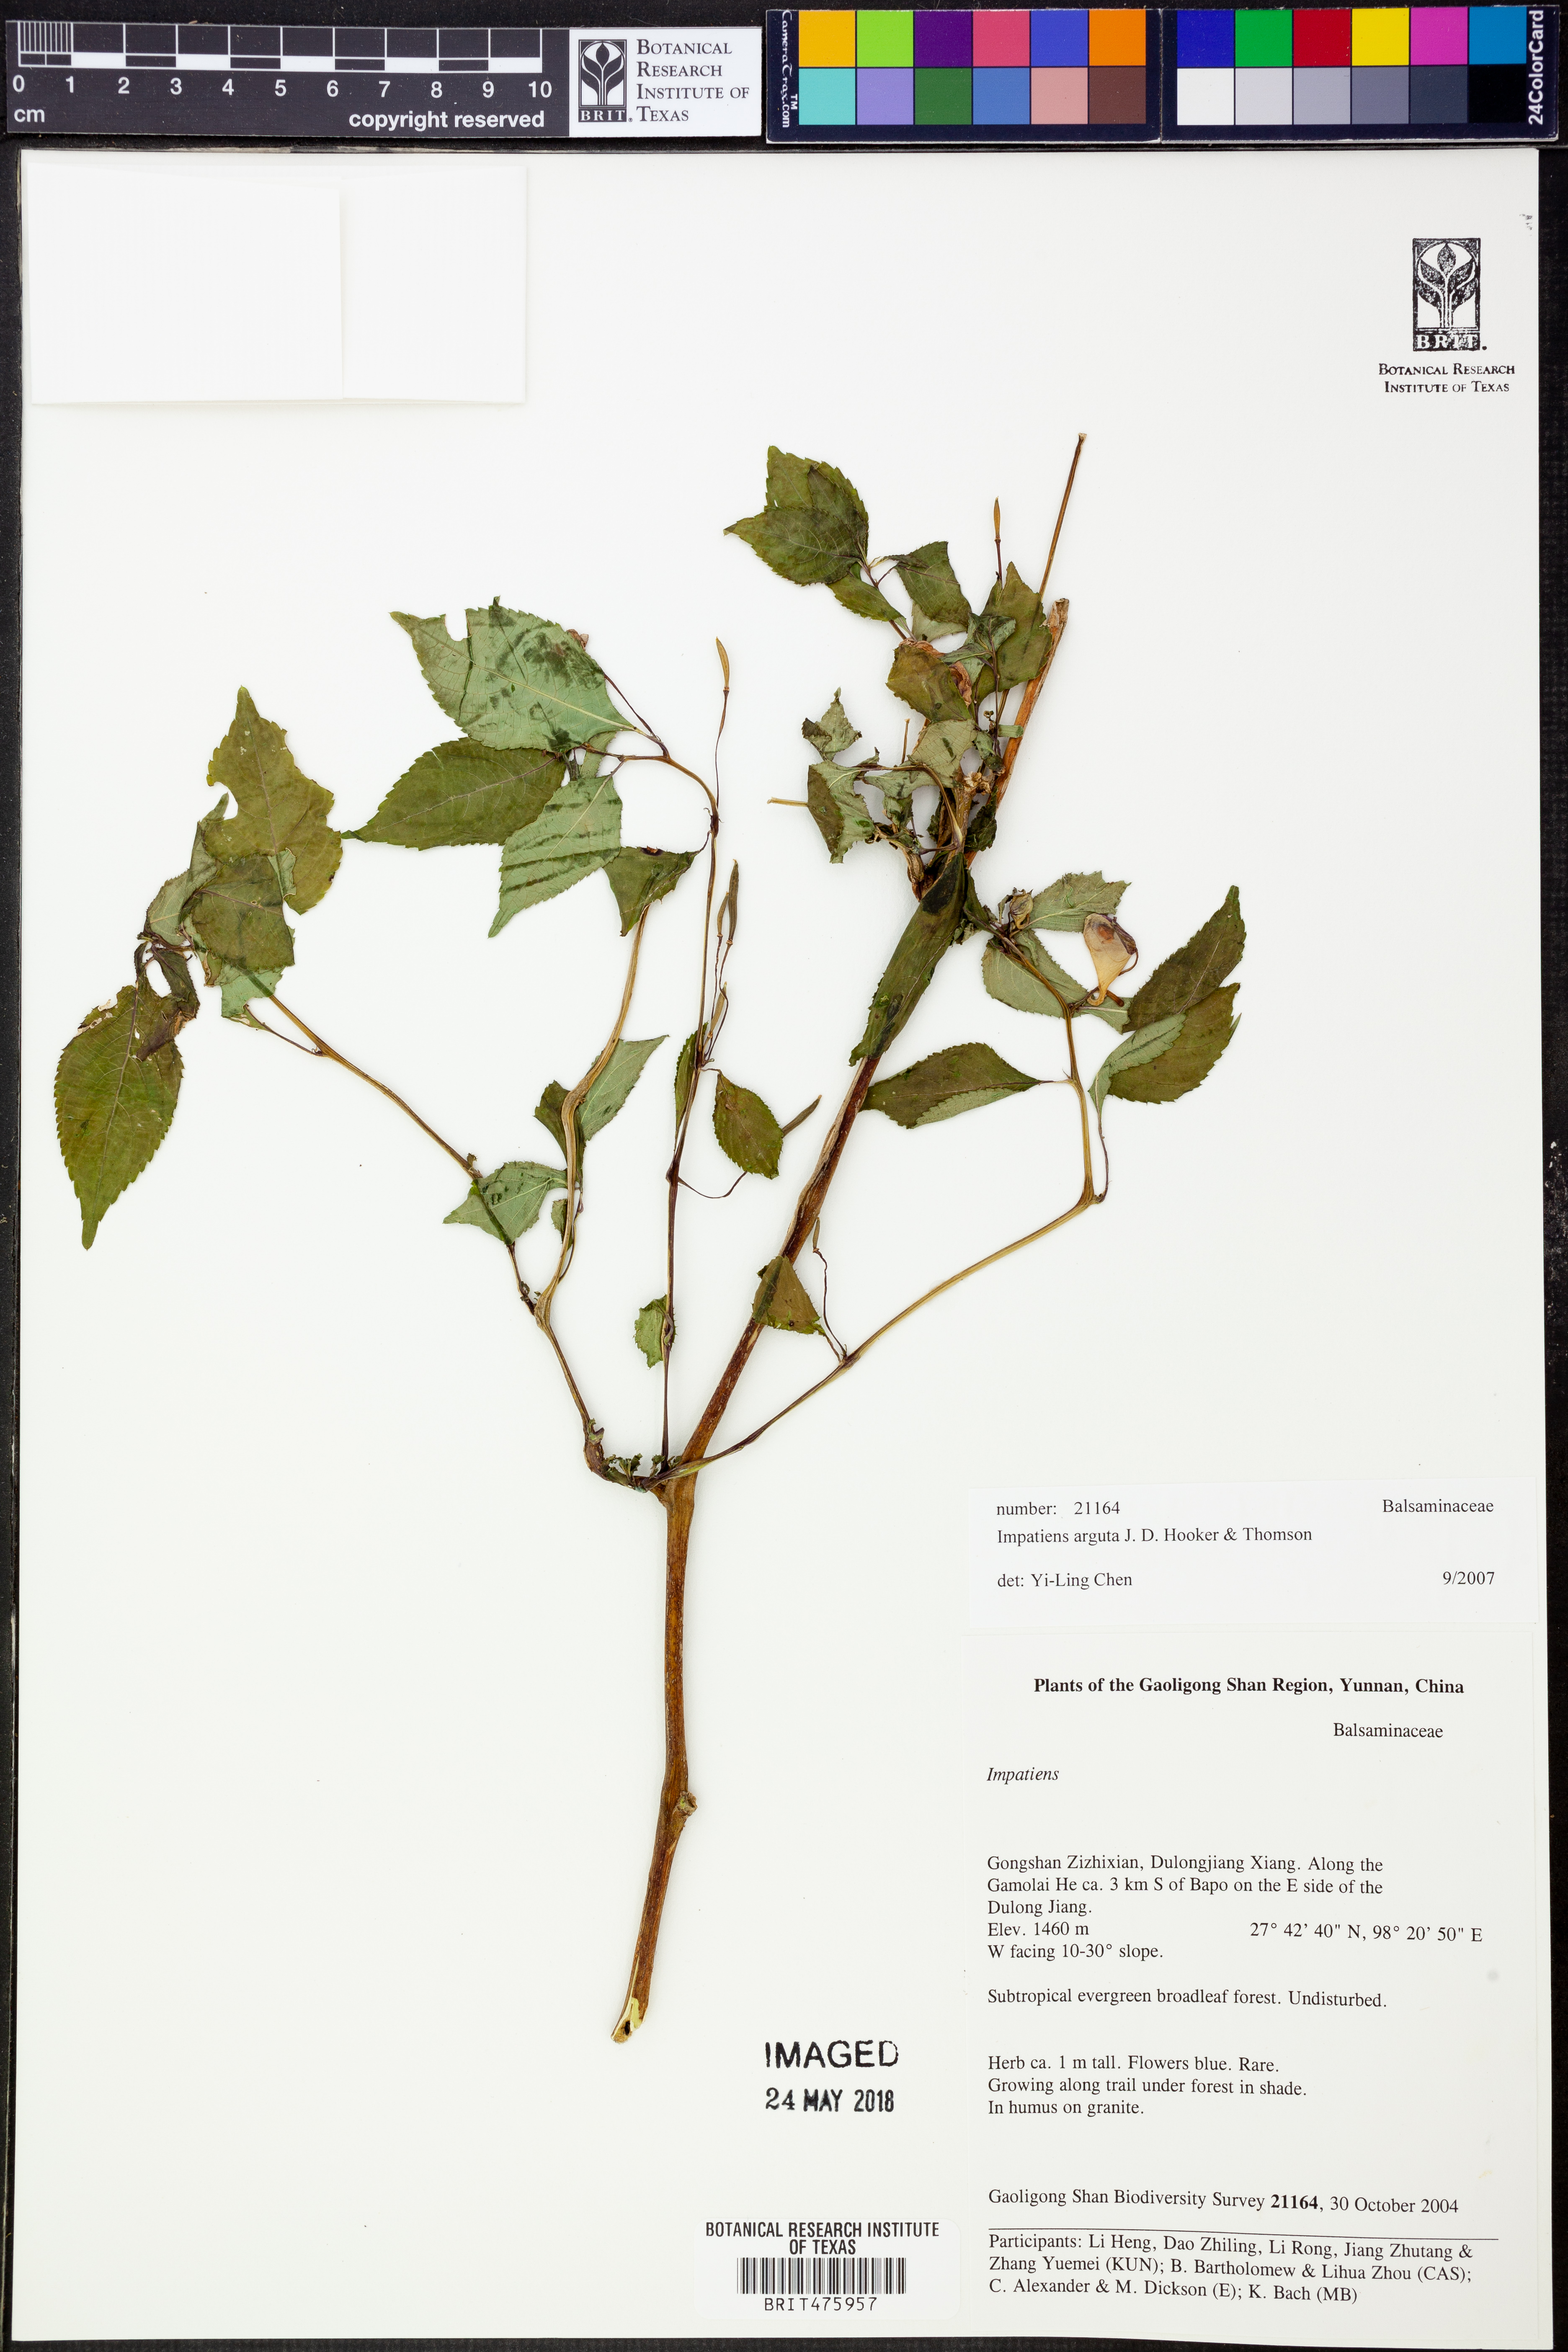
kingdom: Plantae
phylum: Tracheophyta
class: Magnoliopsida
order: Ericales
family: Balsaminaceae
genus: Impatiens
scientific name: Impatiens arguta
